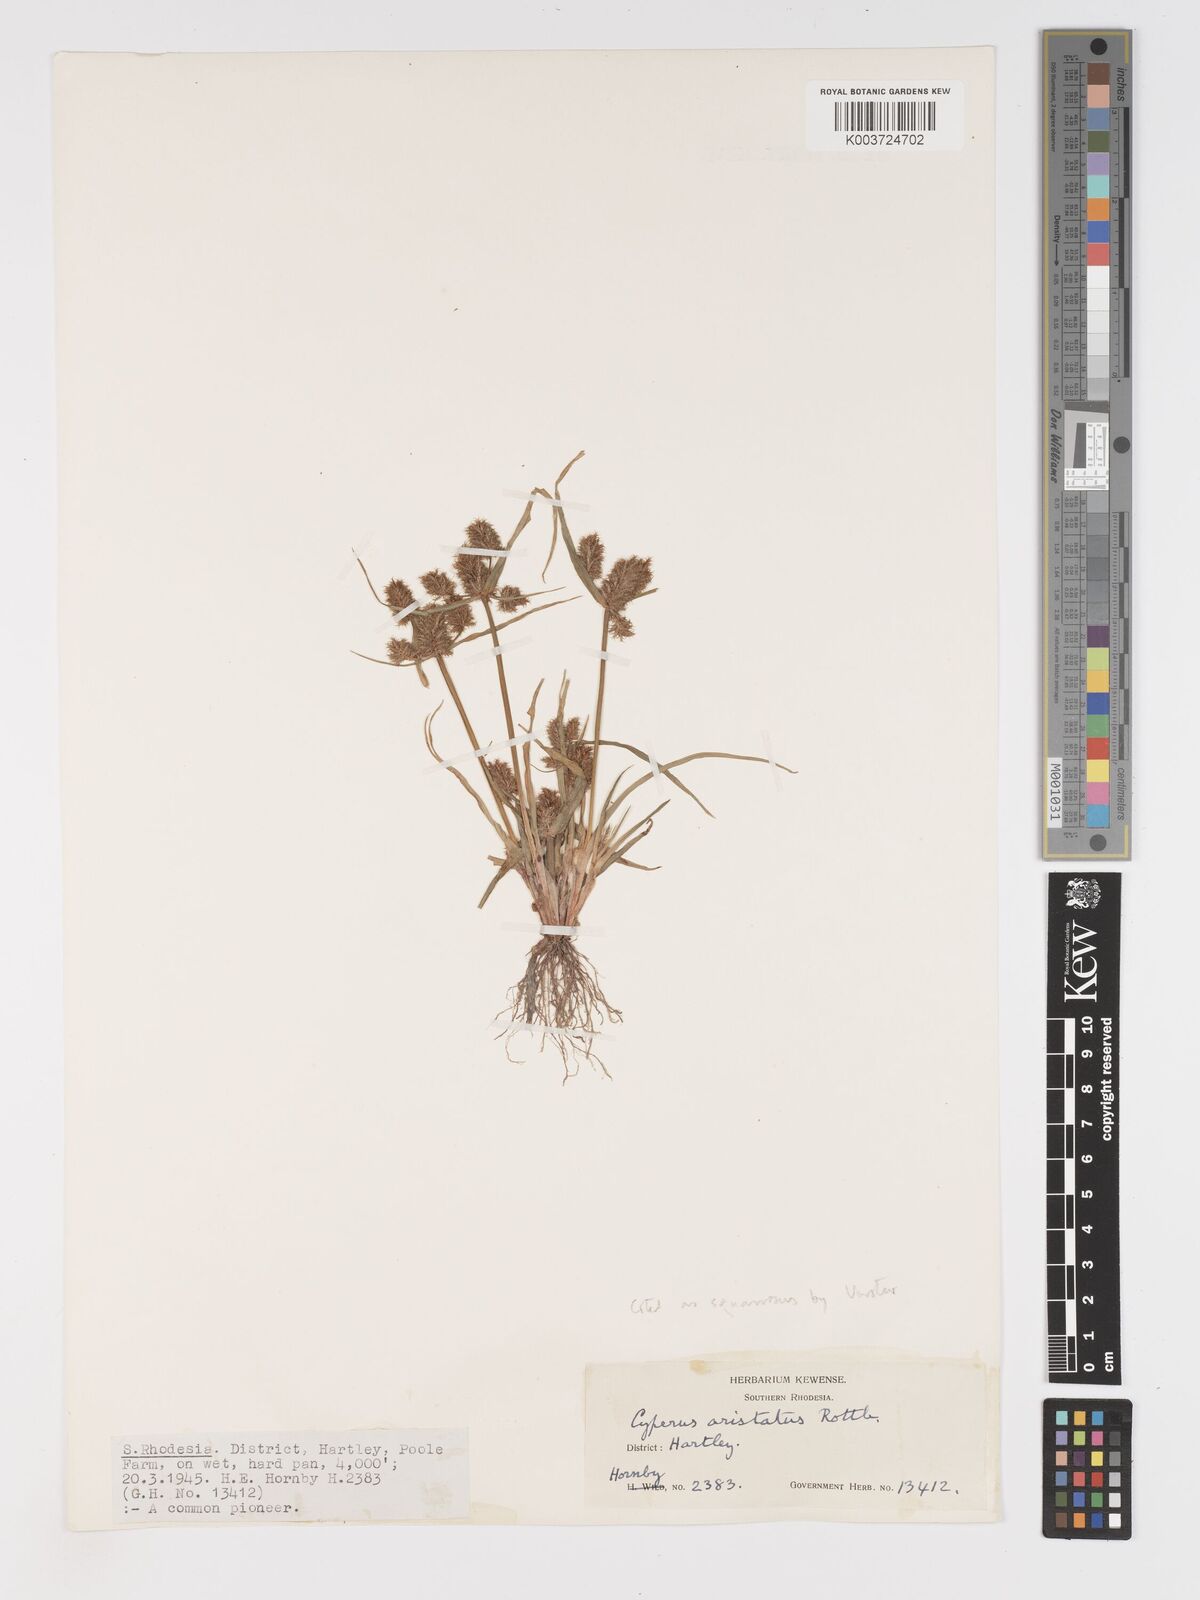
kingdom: Plantae
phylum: Tracheophyta
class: Liliopsida
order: Poales
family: Cyperaceae
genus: Cyperus
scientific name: Cyperus squarrosus
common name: Awned cyperus
